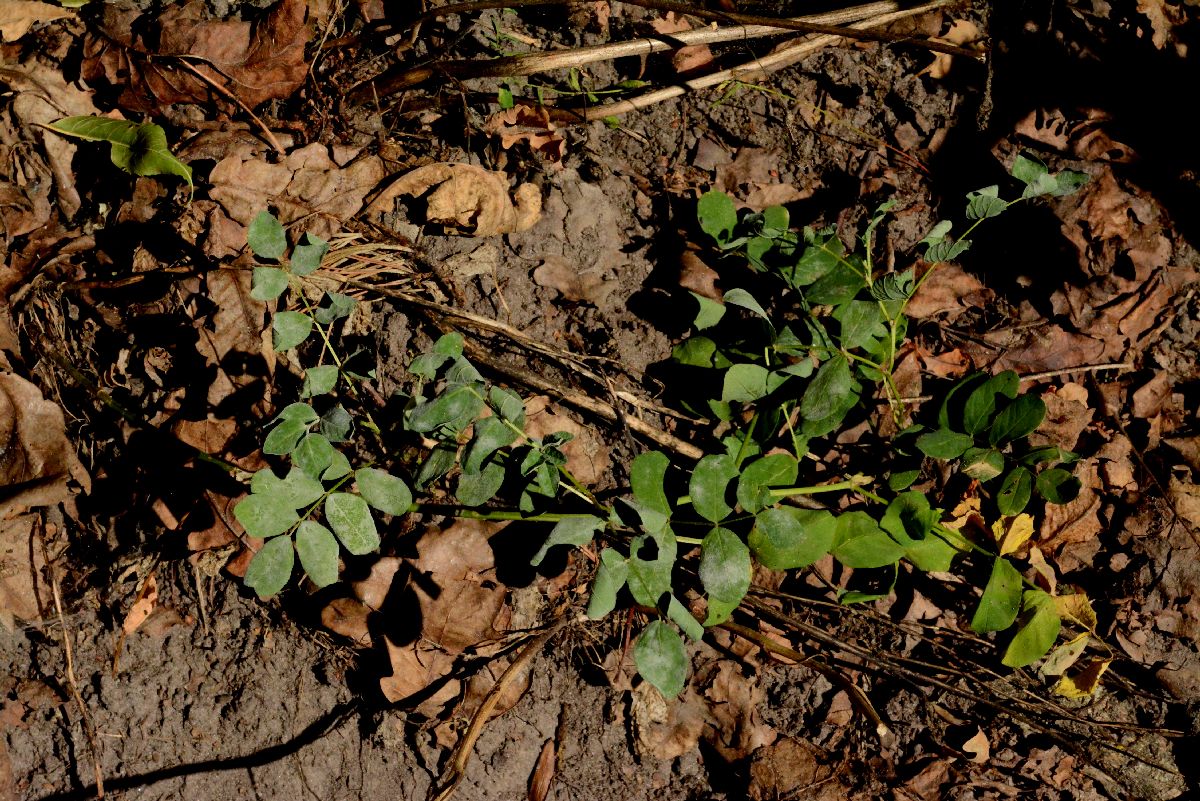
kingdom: Plantae
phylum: Tracheophyta
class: Magnoliopsida
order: Fabales
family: Fabaceae
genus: Astragalus
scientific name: Astragalus glycyphyllos
